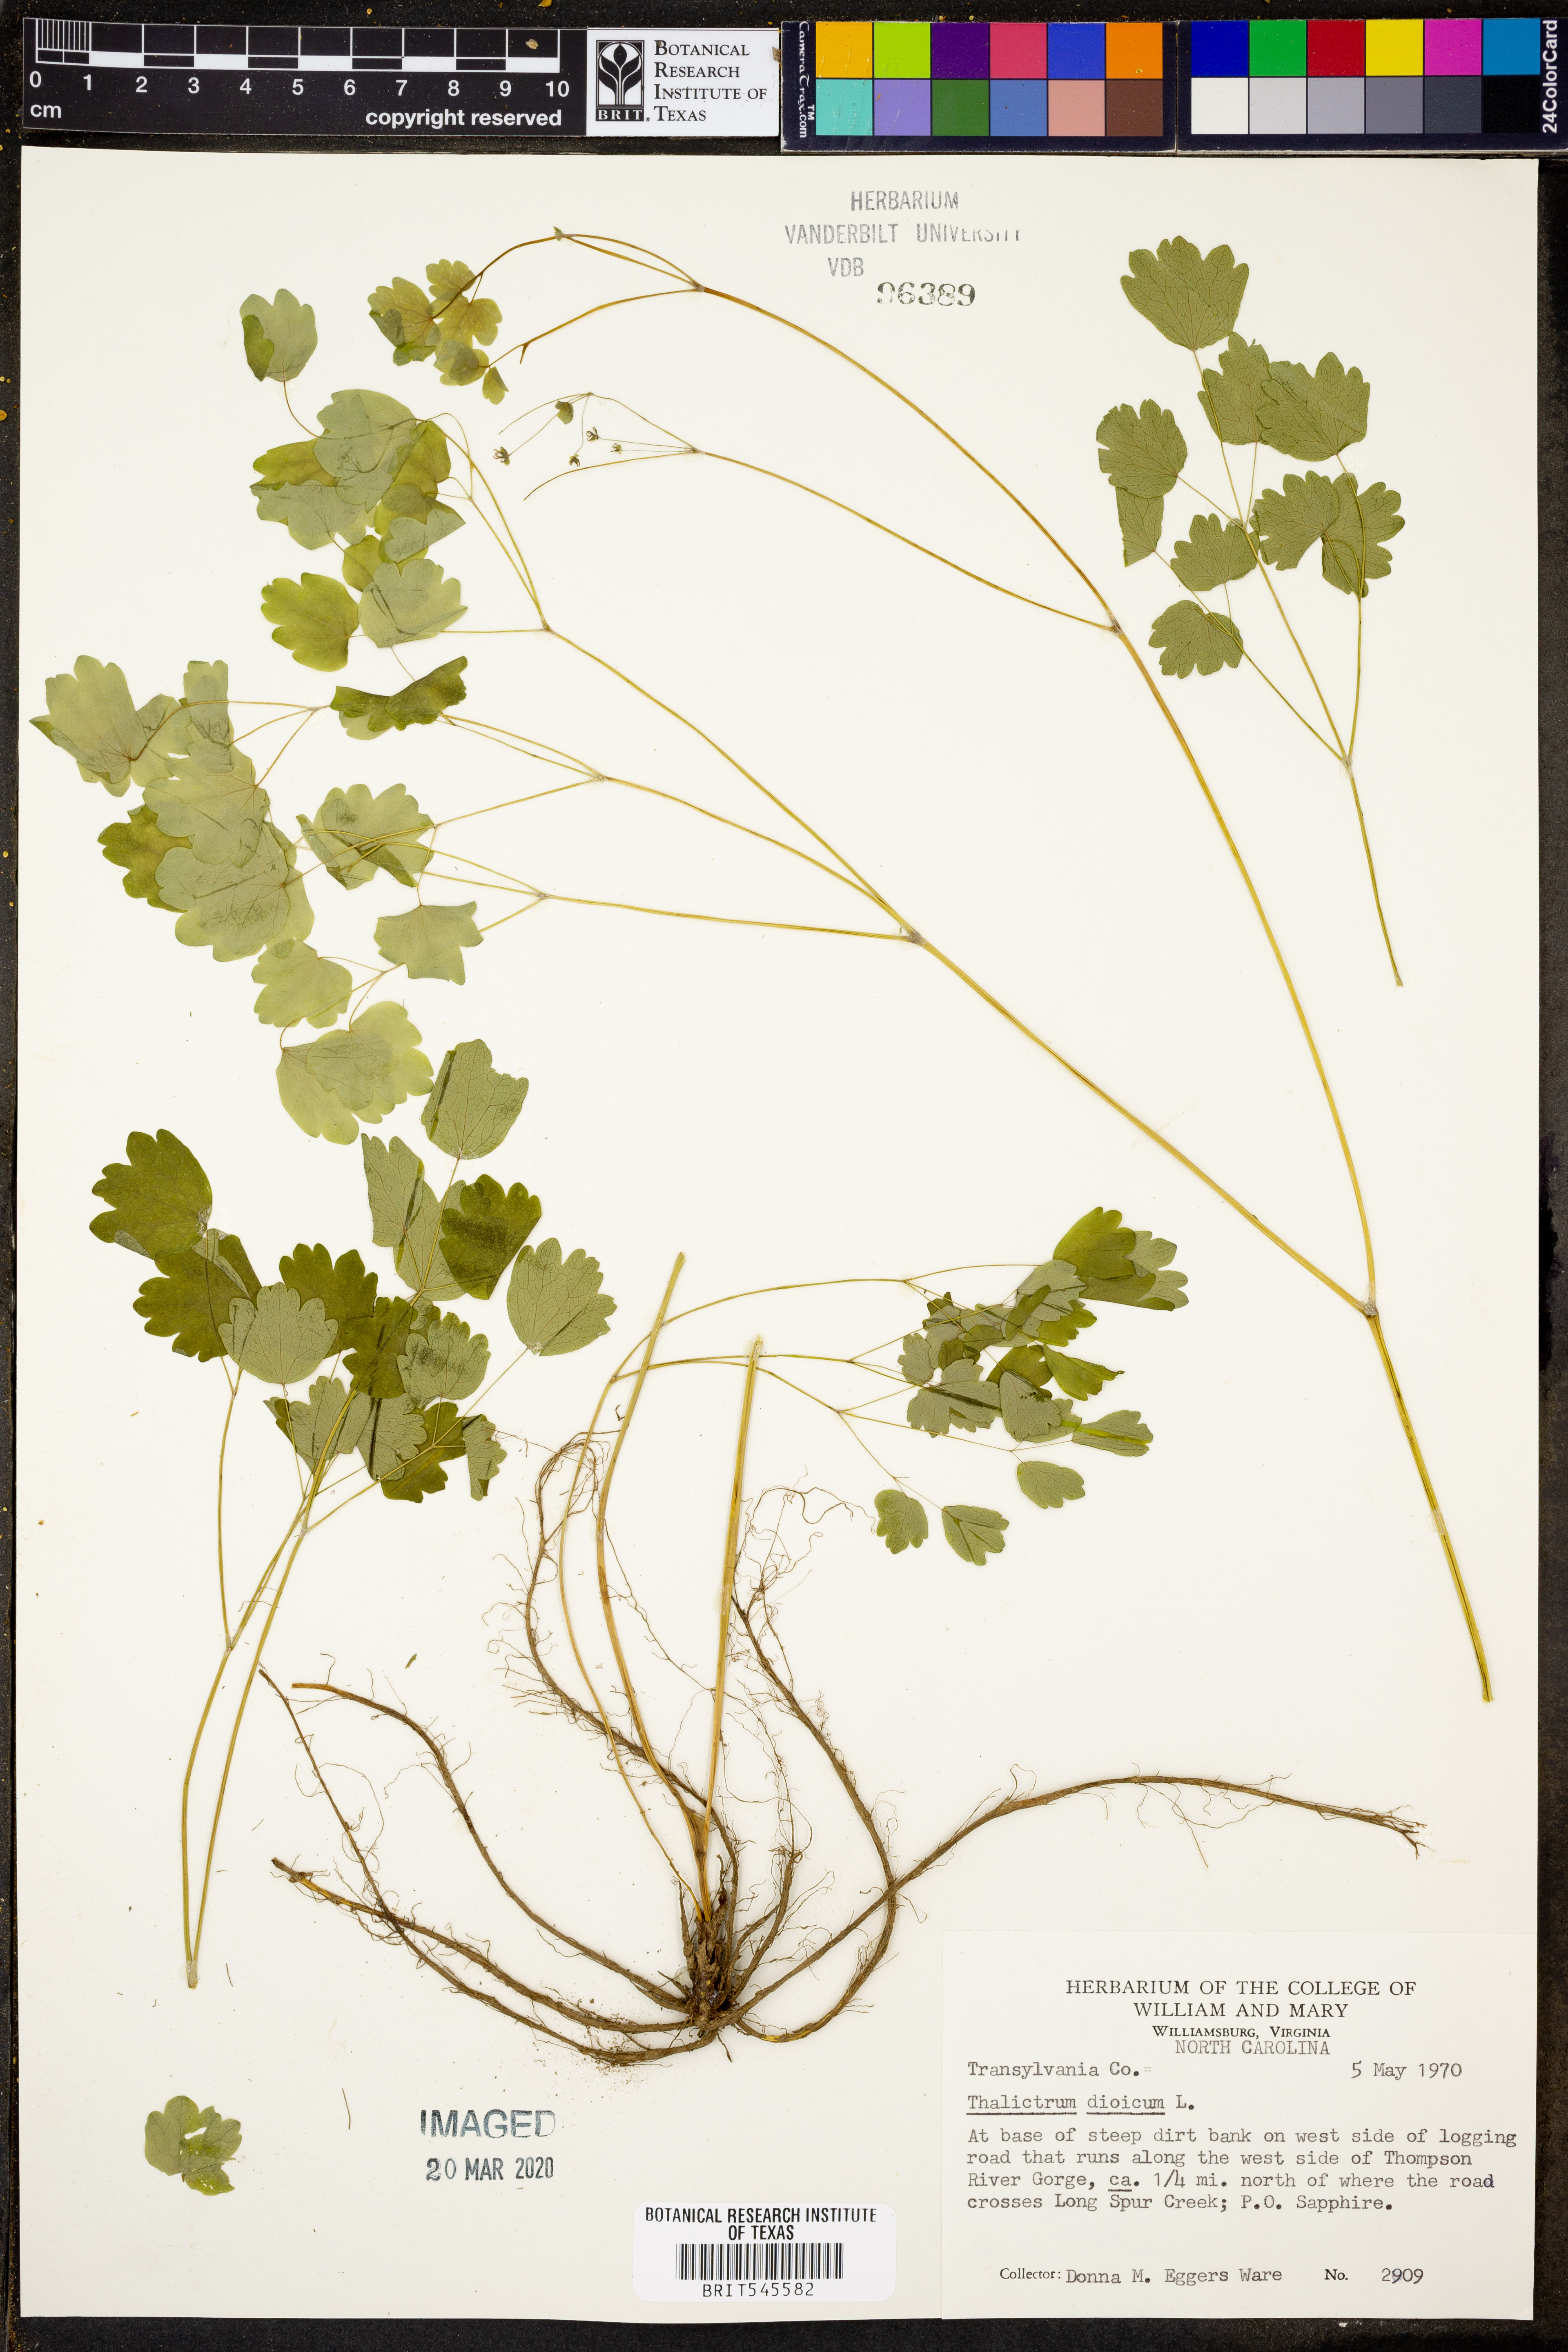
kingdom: Plantae
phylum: Tracheophyta
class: Magnoliopsida
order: Ranunculales
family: Ranunculaceae
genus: Thalictrum
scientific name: Thalictrum dioicum
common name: Early meadow-rue
